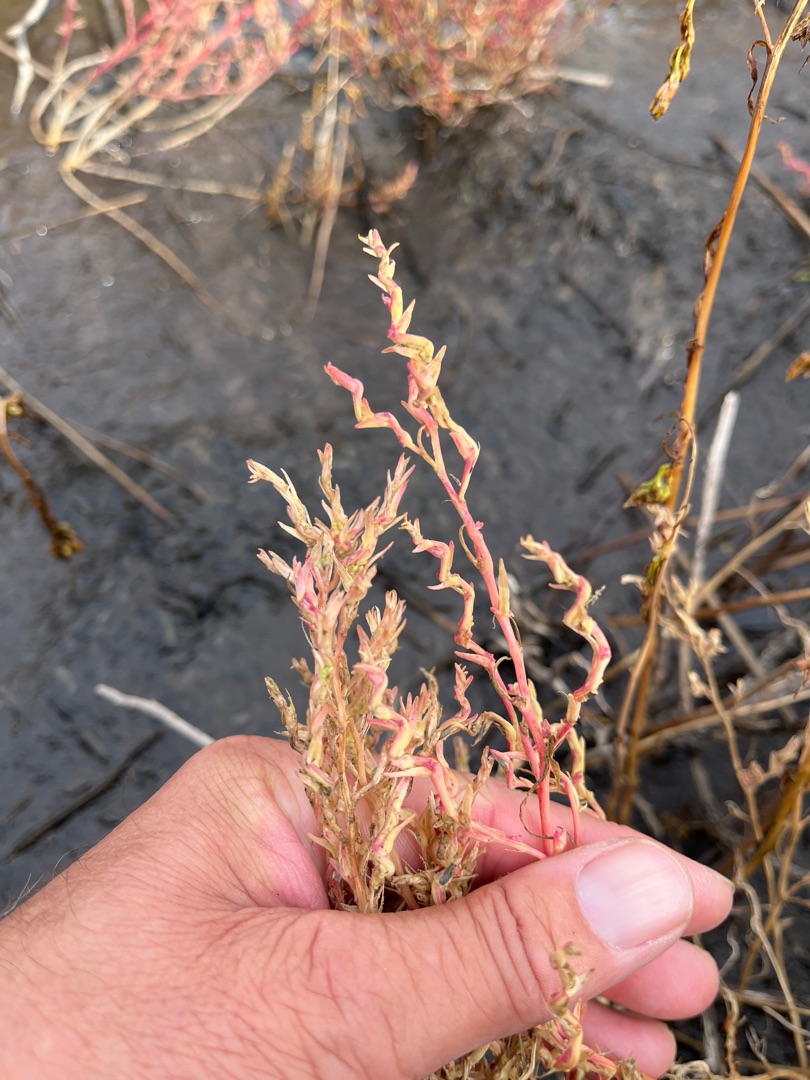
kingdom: Plantae
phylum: Tracheophyta
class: Magnoliopsida
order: Caryophyllales
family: Amaranthaceae
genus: Spirobassia
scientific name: Spirobassia hirsuta
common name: Tangurt
